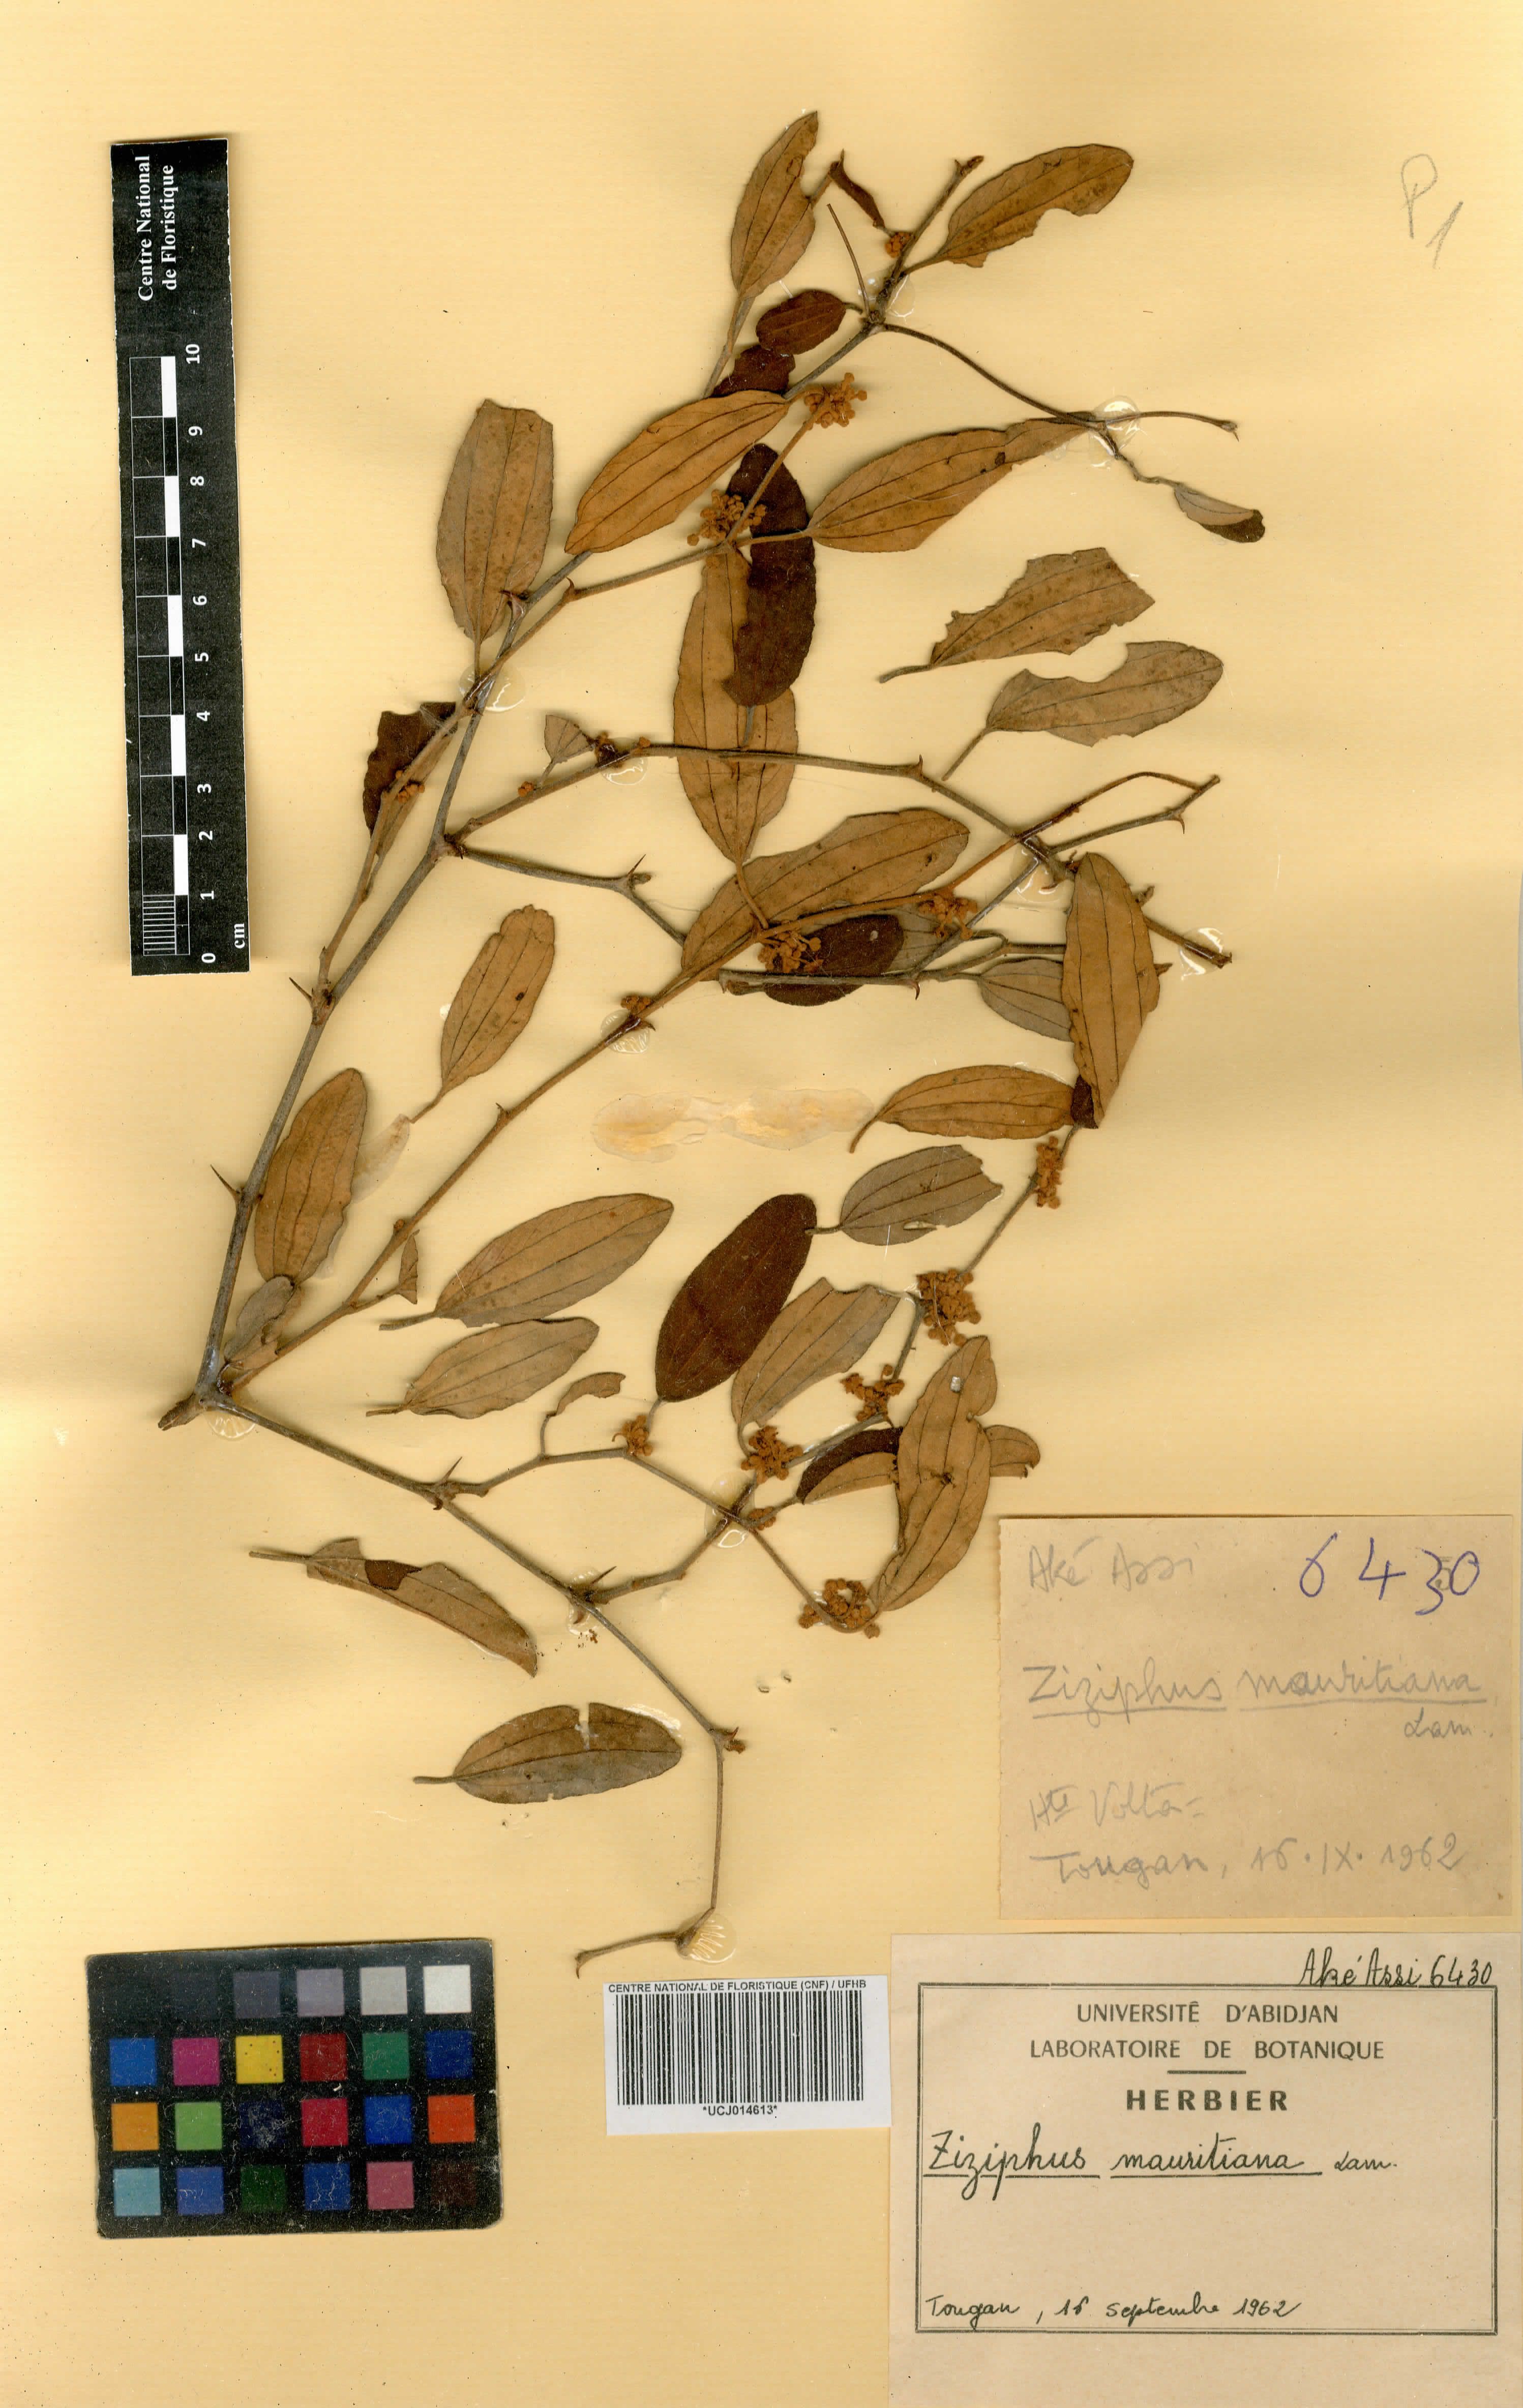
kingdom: Plantae
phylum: Tracheophyta
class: Magnoliopsida
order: Rosales
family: Rhamnaceae
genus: Ziziphus
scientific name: Ziziphus mauritiana
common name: Indian jujube
